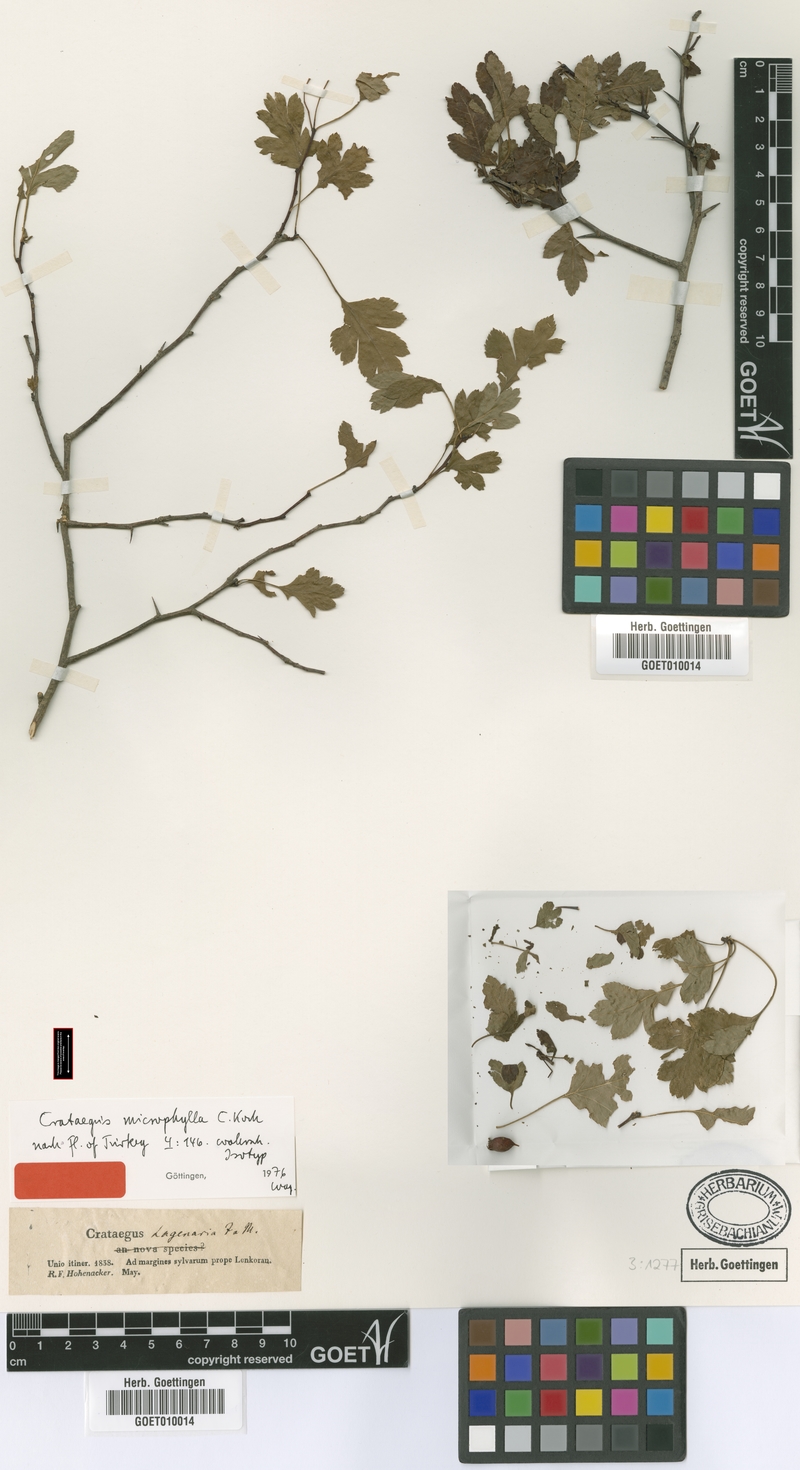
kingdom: Plantae
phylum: Tracheophyta
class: Magnoliopsida
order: Rosales
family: Rosaceae
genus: Crataegus
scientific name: Crataegus microphylla
